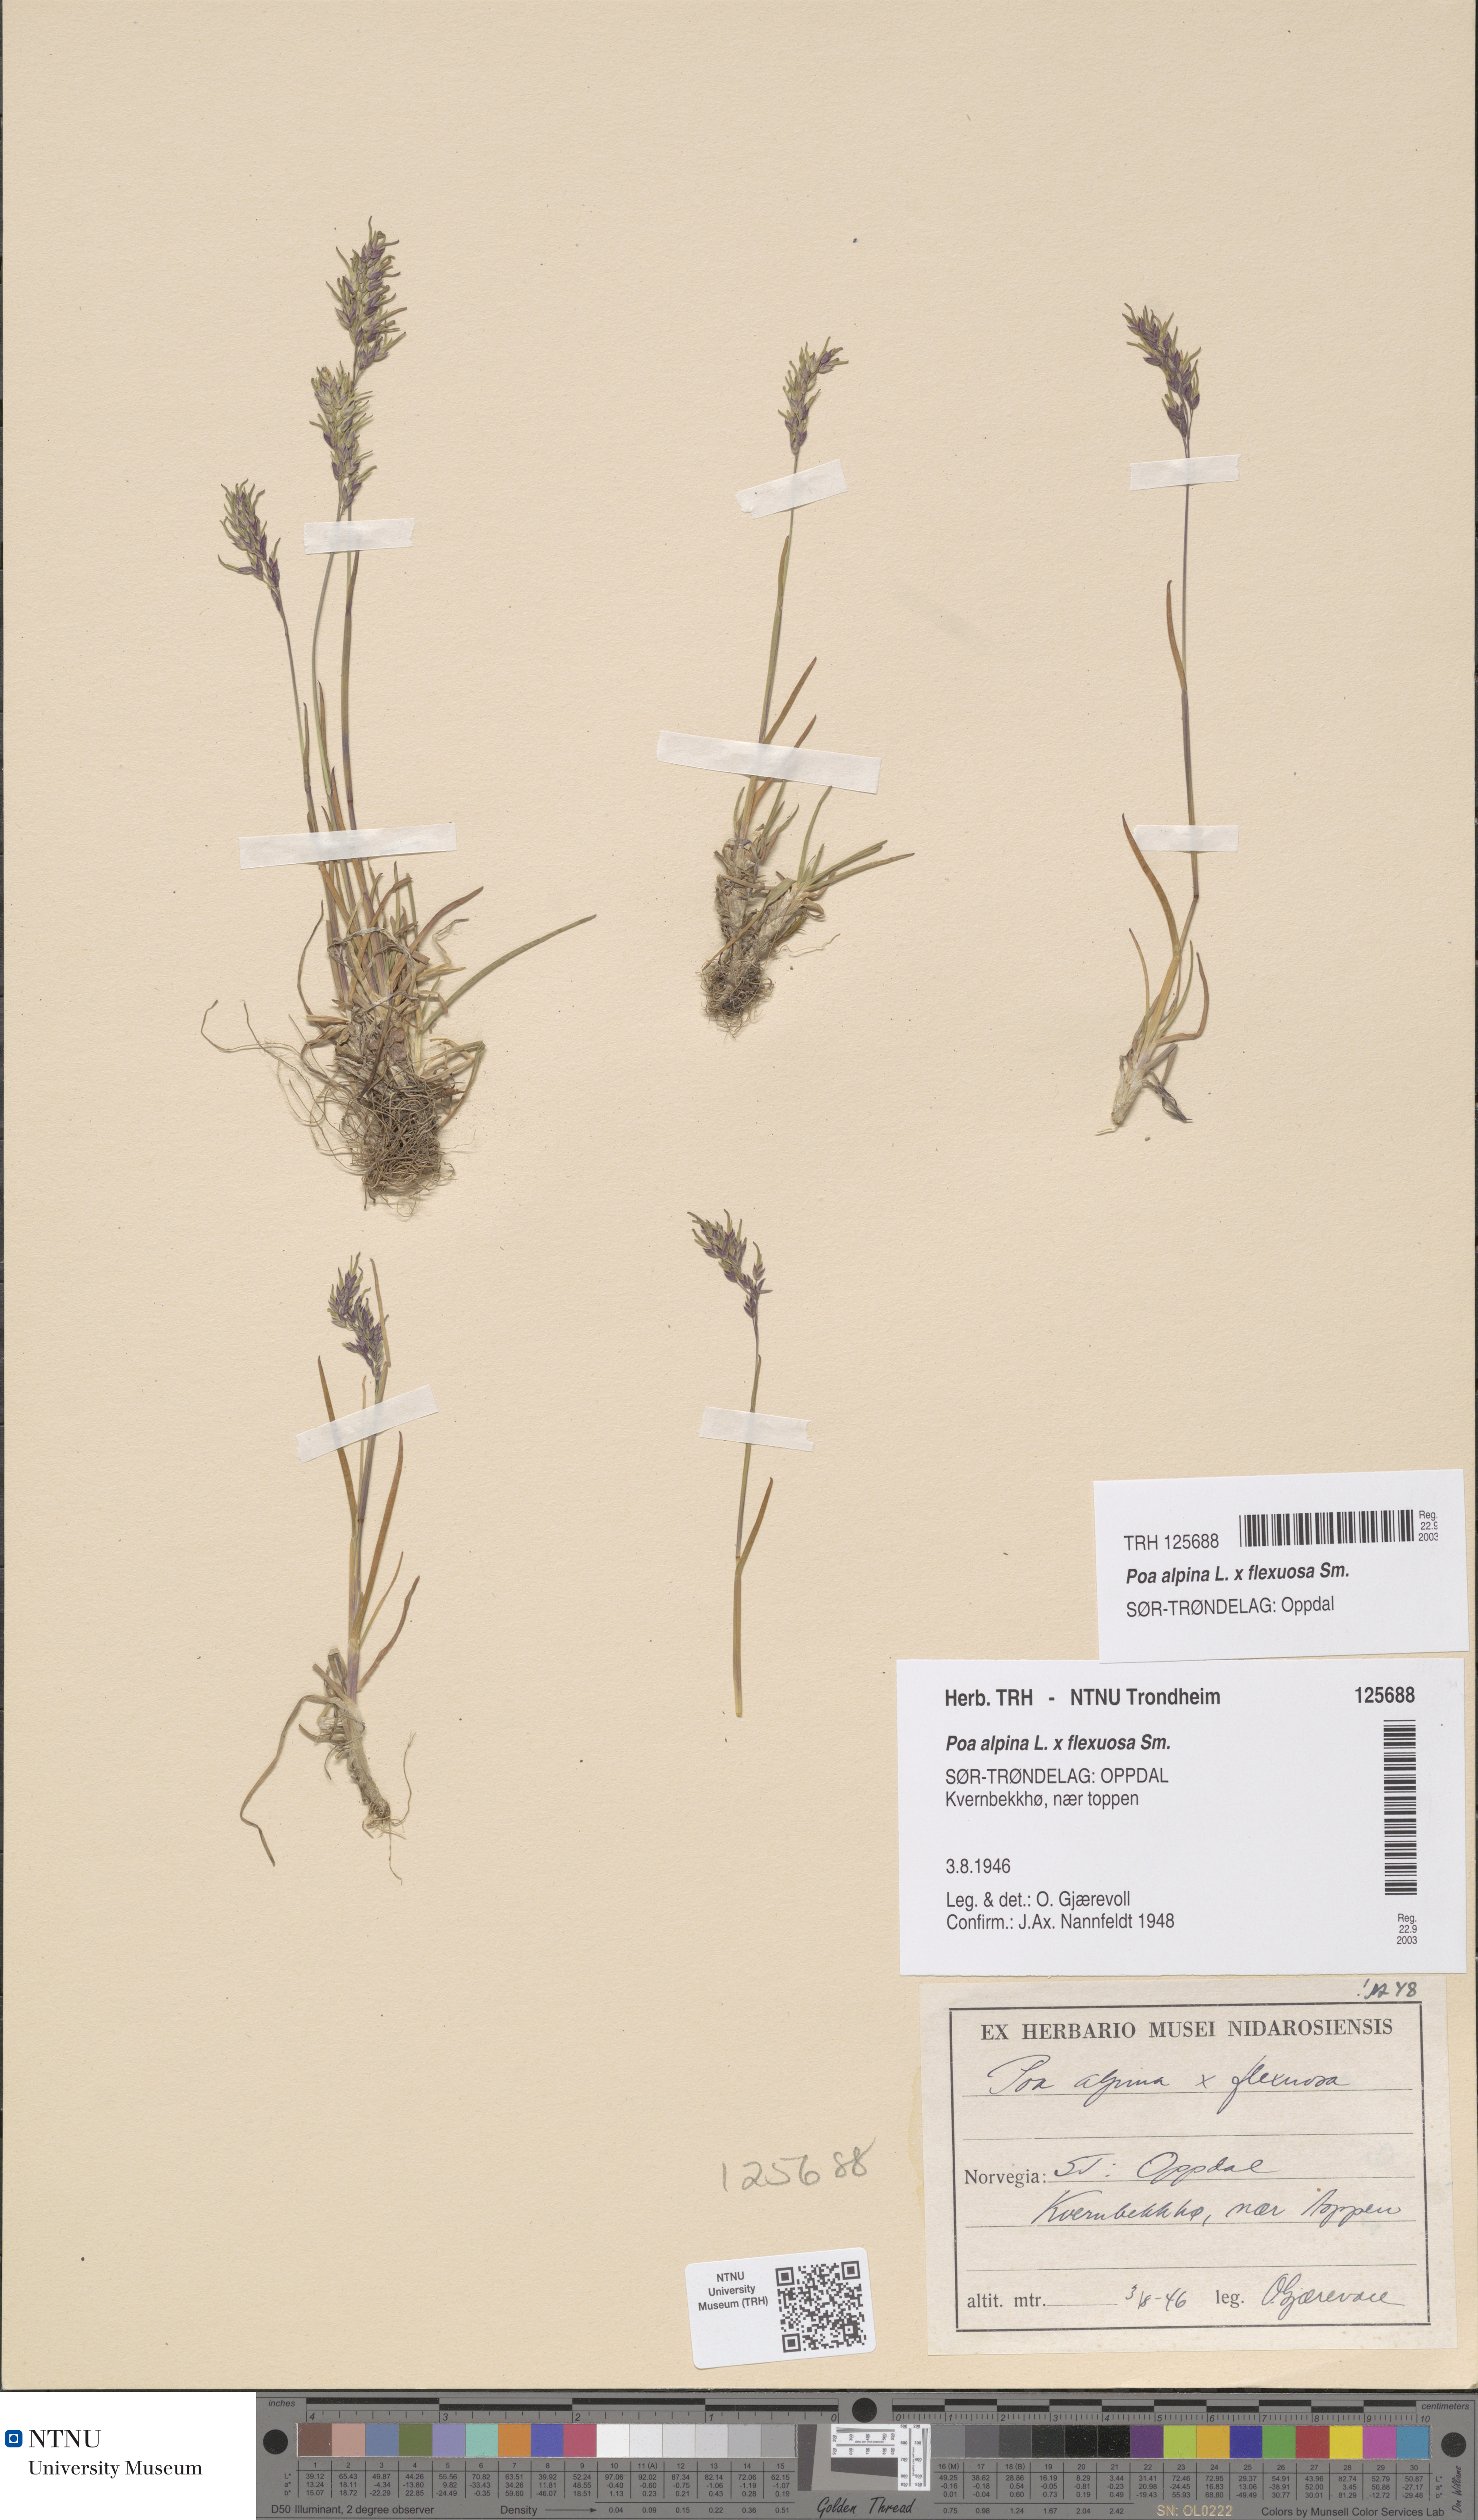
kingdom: Plantae
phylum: Tracheophyta
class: Liliopsida
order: Poales
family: Poaceae
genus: Poa
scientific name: Poa alpina
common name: Alpine bluegrass
